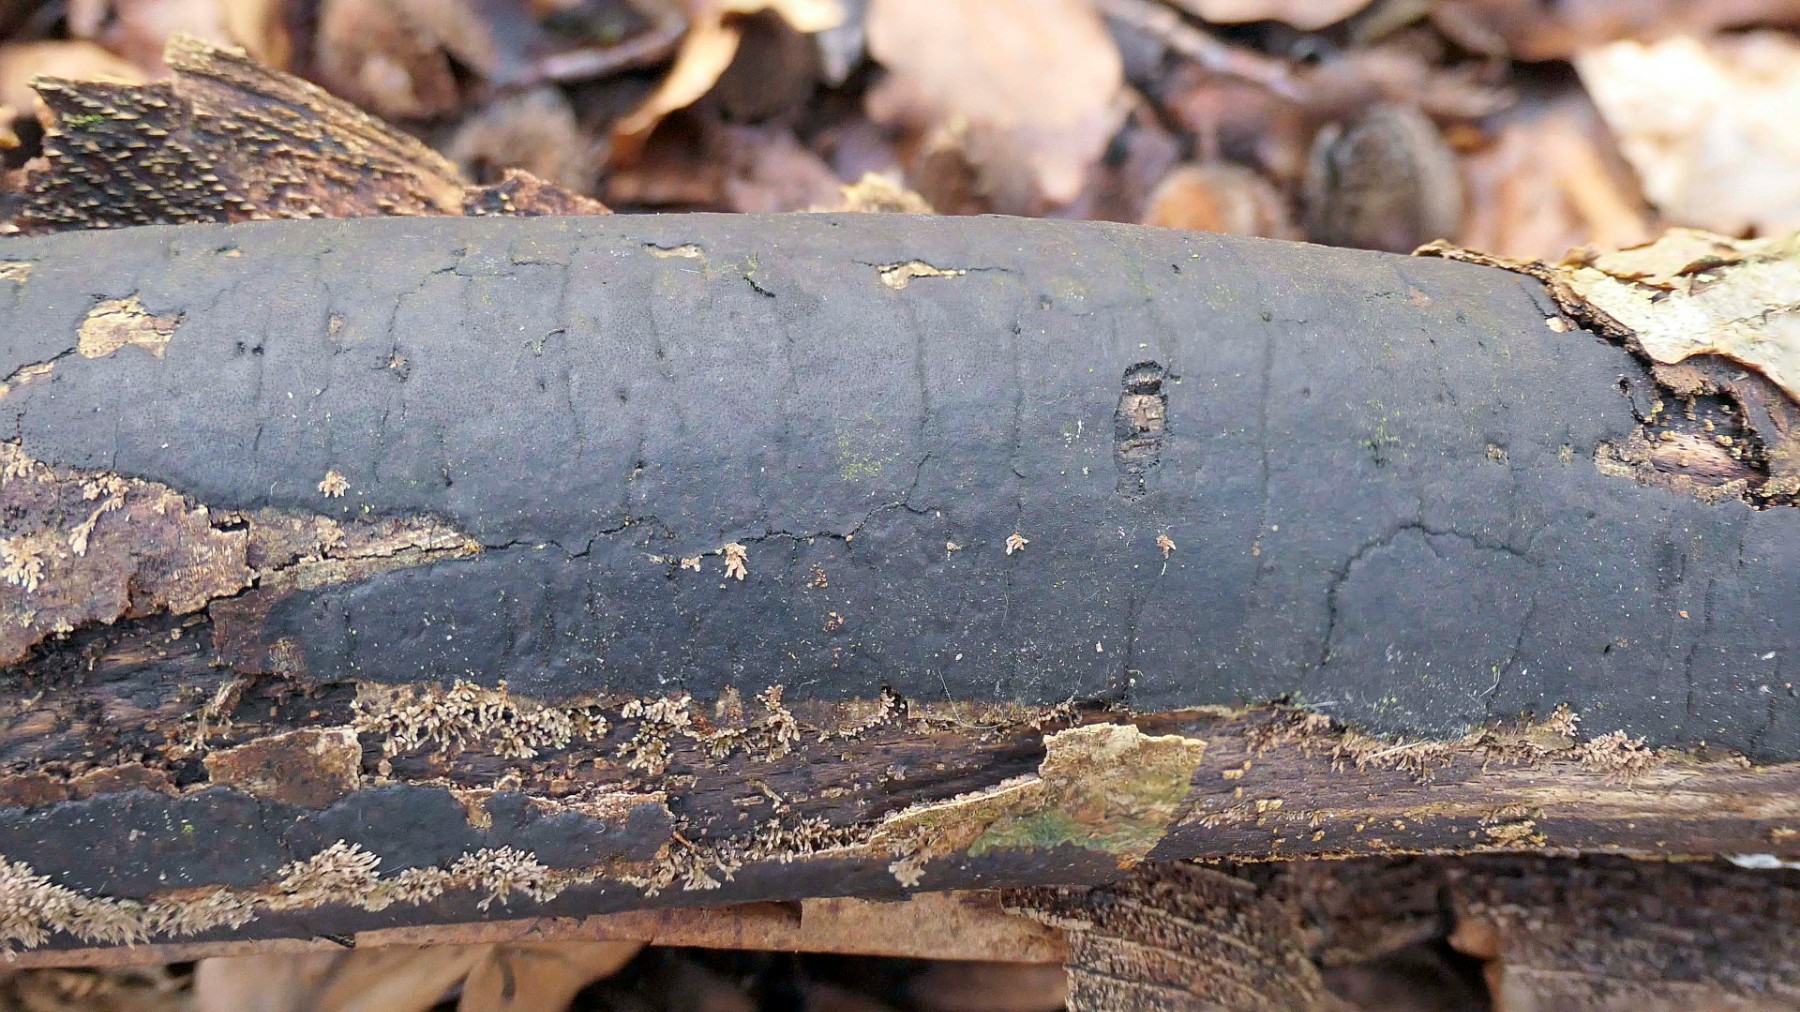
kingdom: Fungi
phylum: Ascomycota
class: Sordariomycetes
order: Xylariales
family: Diatrypaceae
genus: Diatrype
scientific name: Diatrype decorticata
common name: barksprænger-kulskorpe
